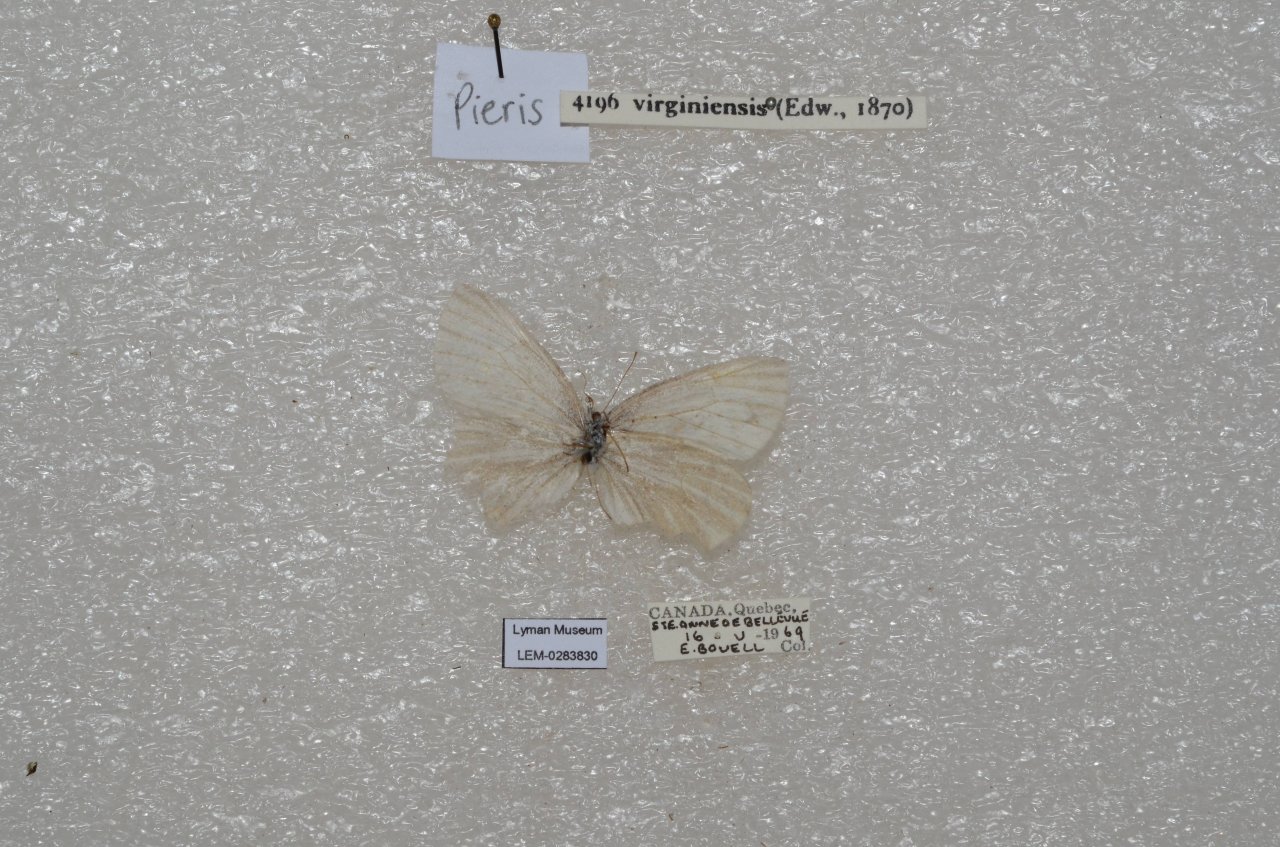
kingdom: Animalia
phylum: Arthropoda
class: Insecta
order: Lepidoptera
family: Pieridae
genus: Pieris
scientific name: Pieris virginiensis
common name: West Virginia White
